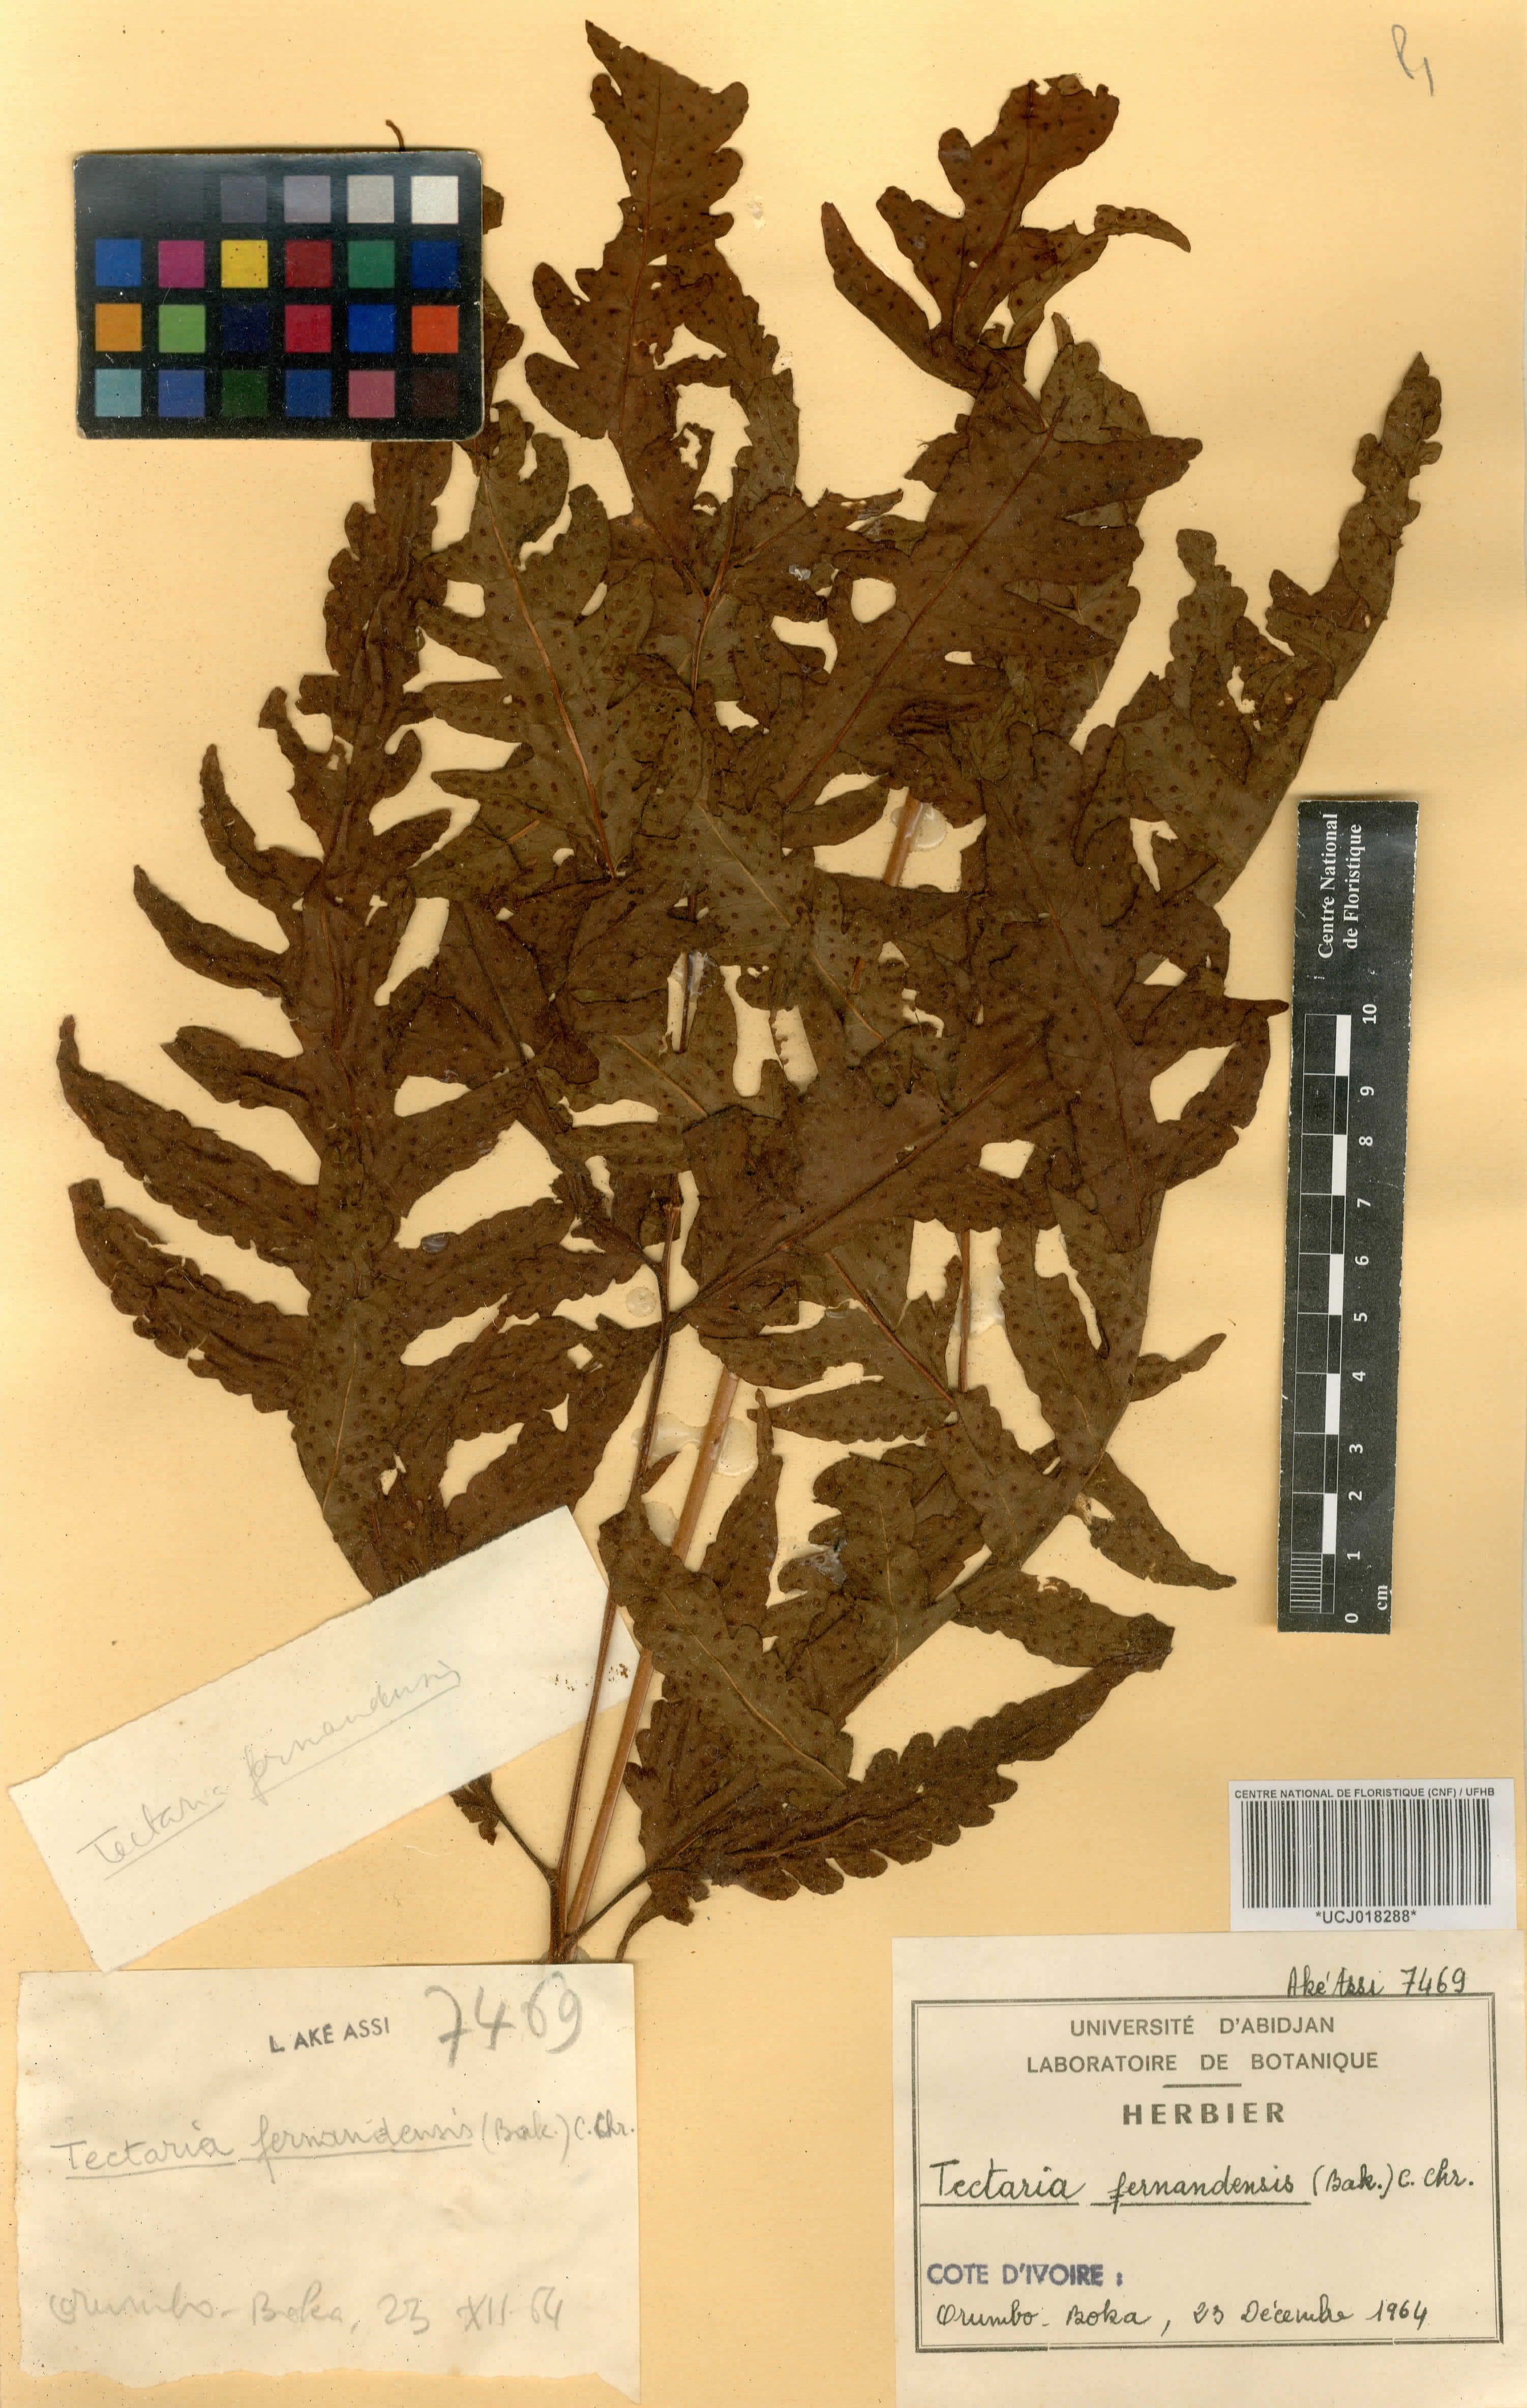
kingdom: Plantae
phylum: Tracheophyta
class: Polypodiopsida
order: Polypodiales
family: Tectariaceae
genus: Tectaria
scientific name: Tectaria fernandensis
